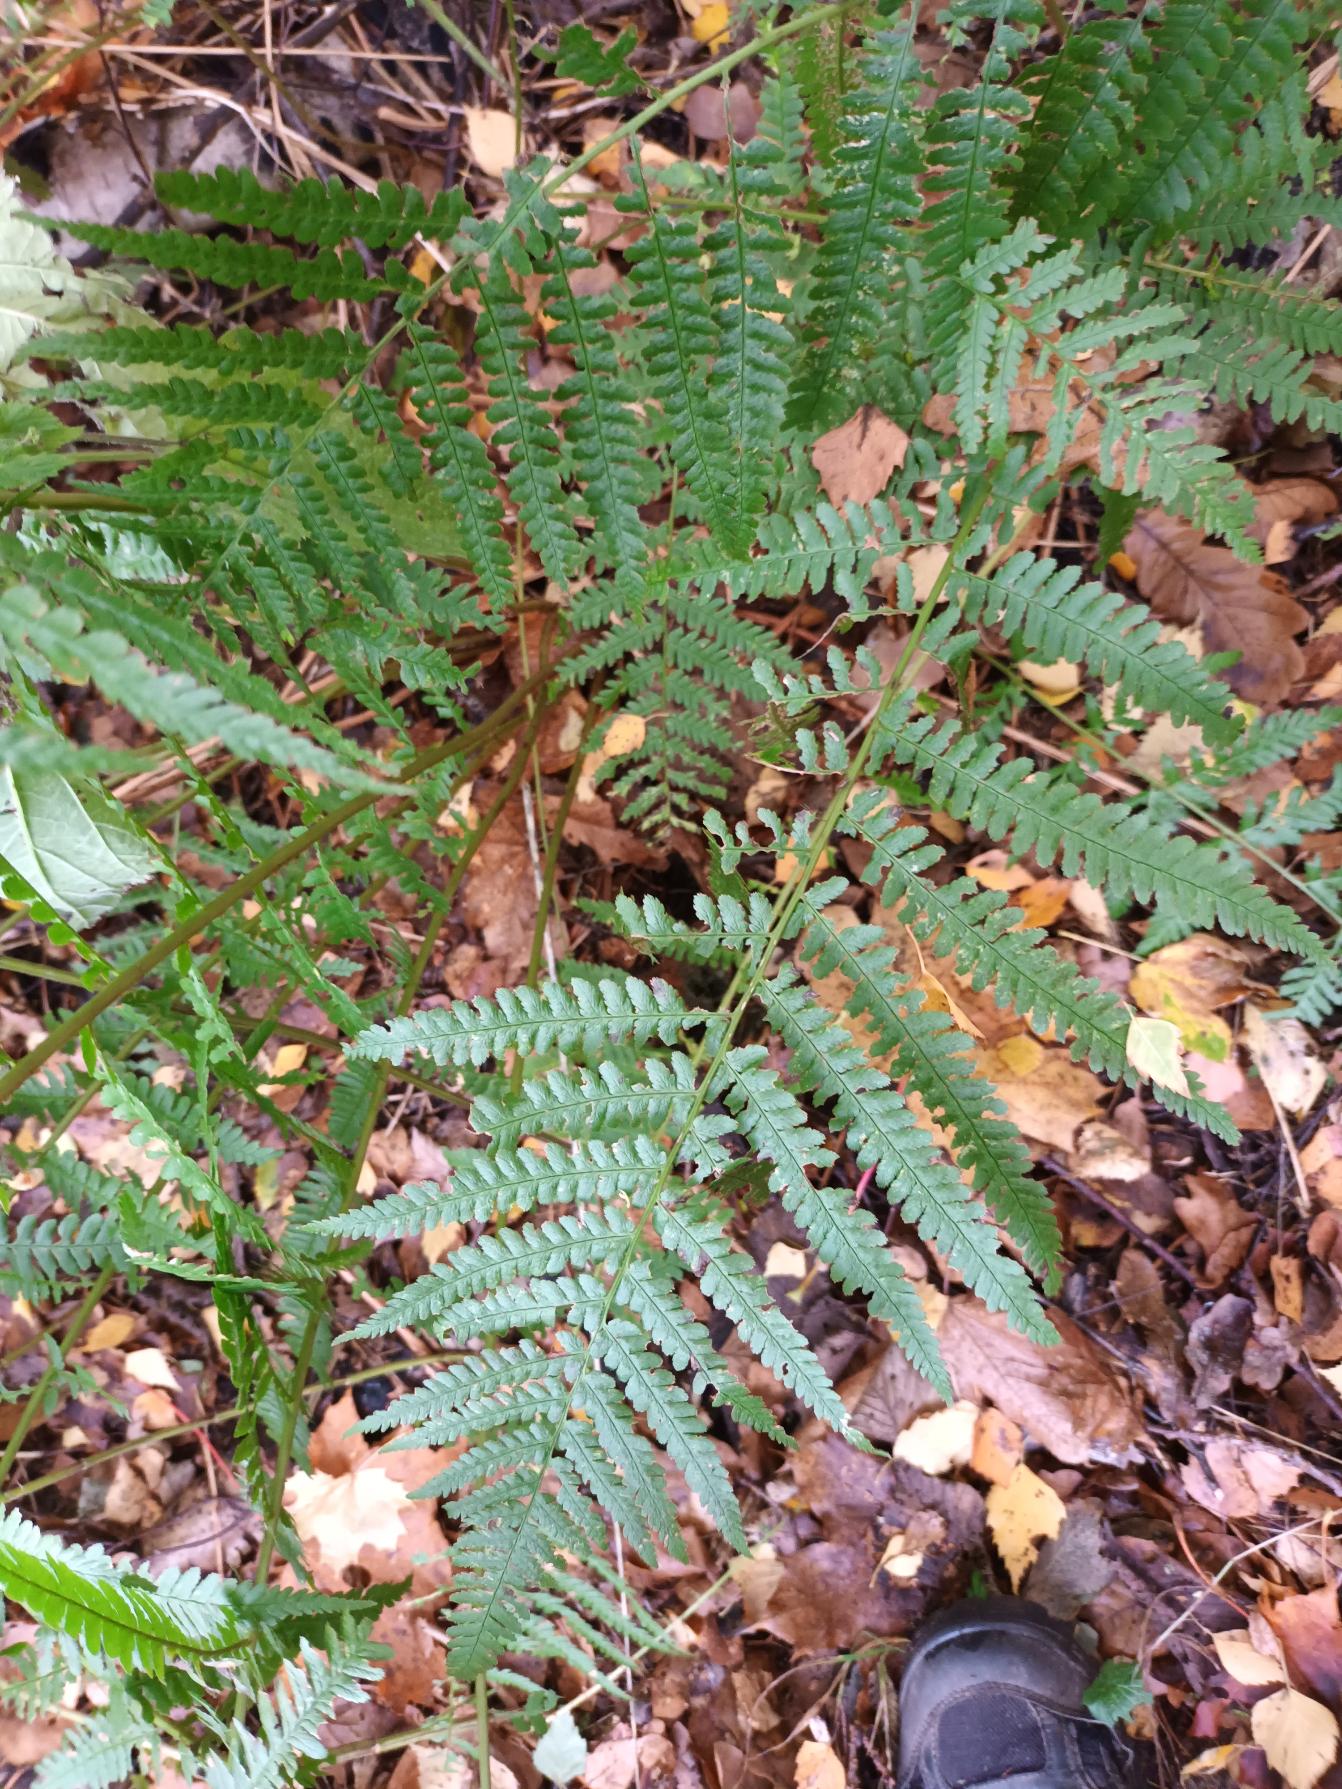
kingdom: Plantae
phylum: Tracheophyta
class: Polypodiopsida
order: Polypodiales
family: Dryopteridaceae
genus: Dryopteris
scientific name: Dryopteris filix-mas
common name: Almindelig mangeløv
